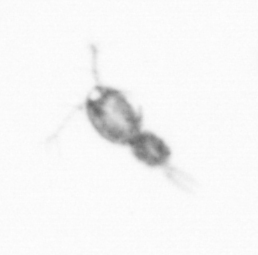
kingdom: Animalia
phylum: Arthropoda
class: Copepoda
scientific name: Copepoda
